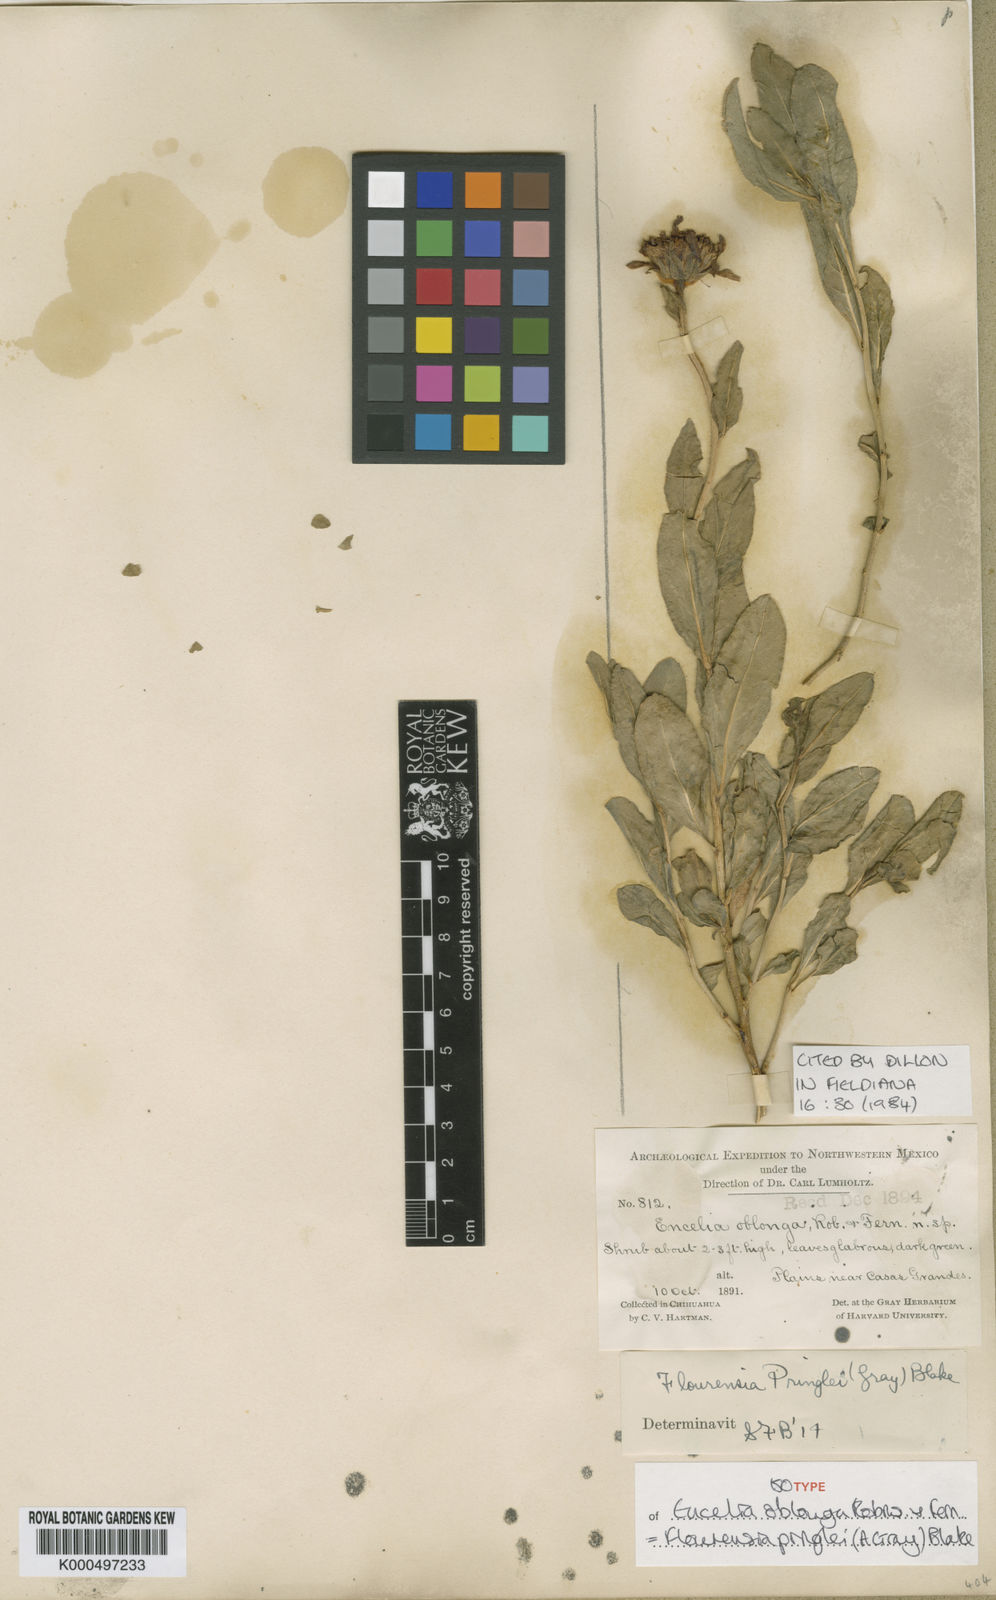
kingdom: Plantae
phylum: Tracheophyta
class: Magnoliopsida
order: Asterales
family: Asteraceae
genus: Flourensia
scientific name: Flourensia pringlei
